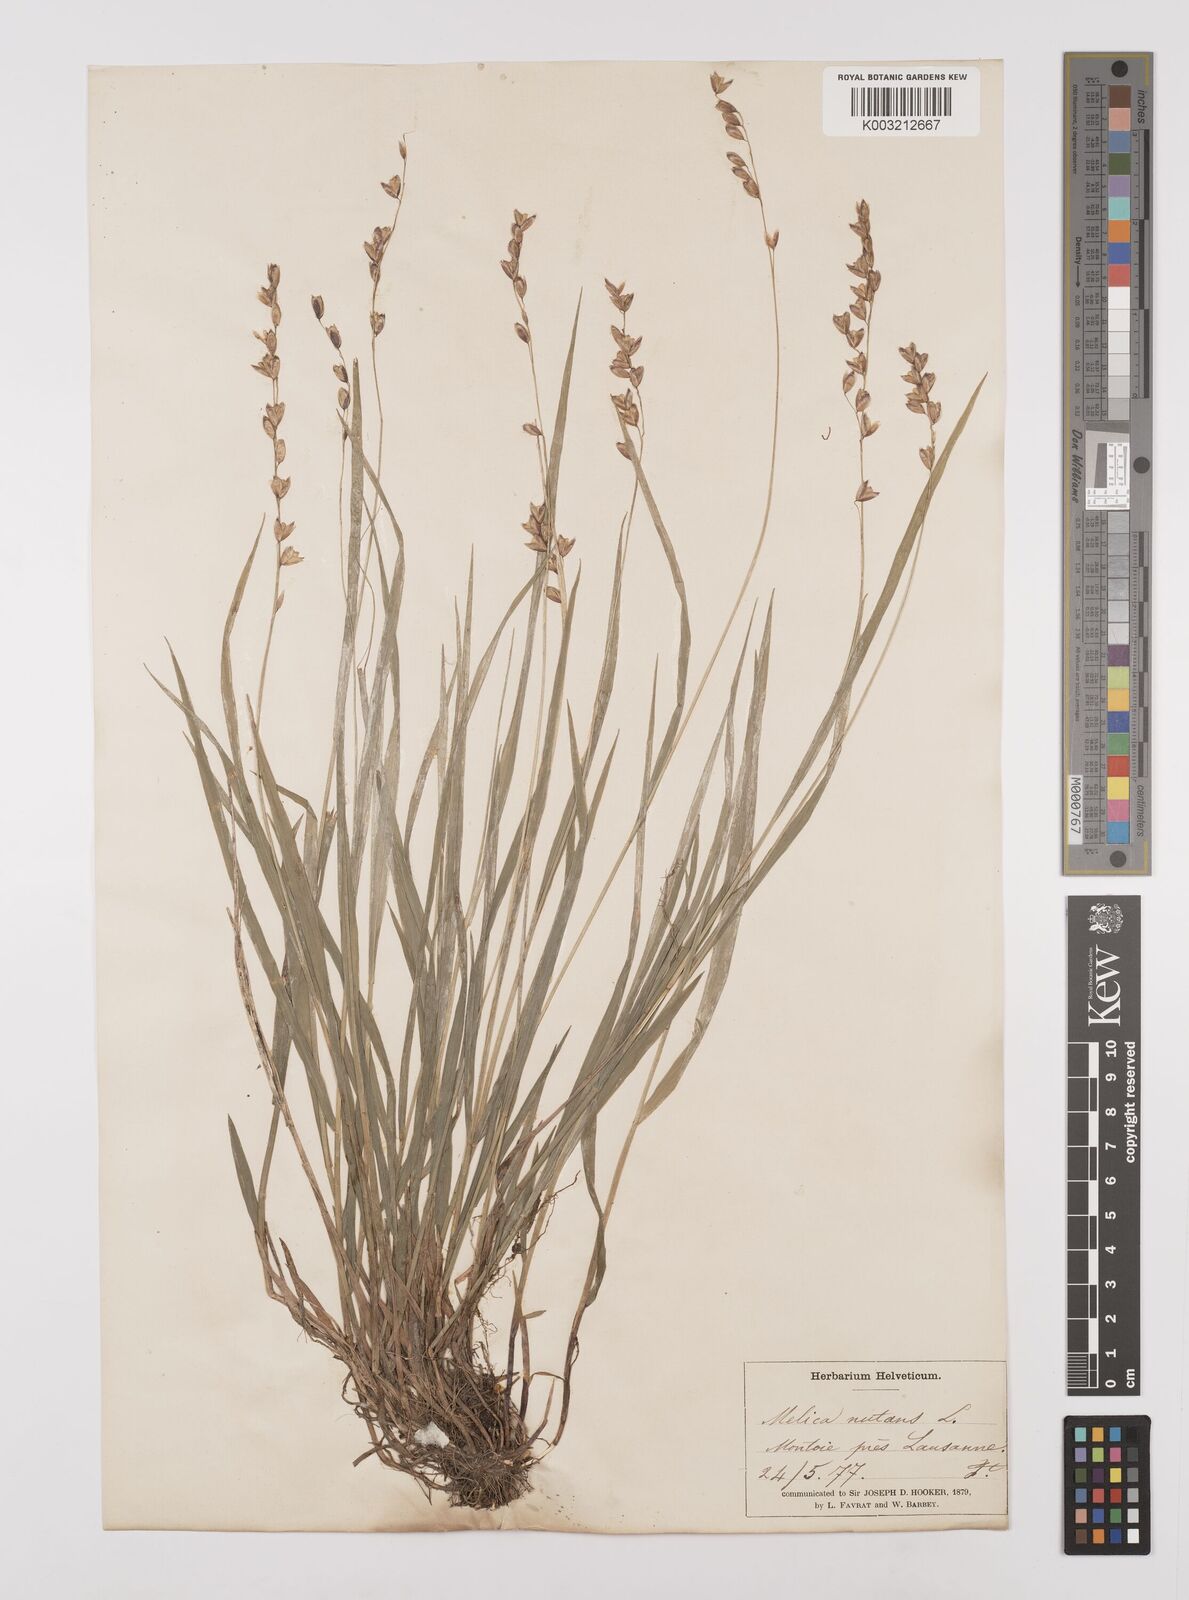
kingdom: Plantae
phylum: Tracheophyta
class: Liliopsida
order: Poales
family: Poaceae
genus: Melica
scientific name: Melica
